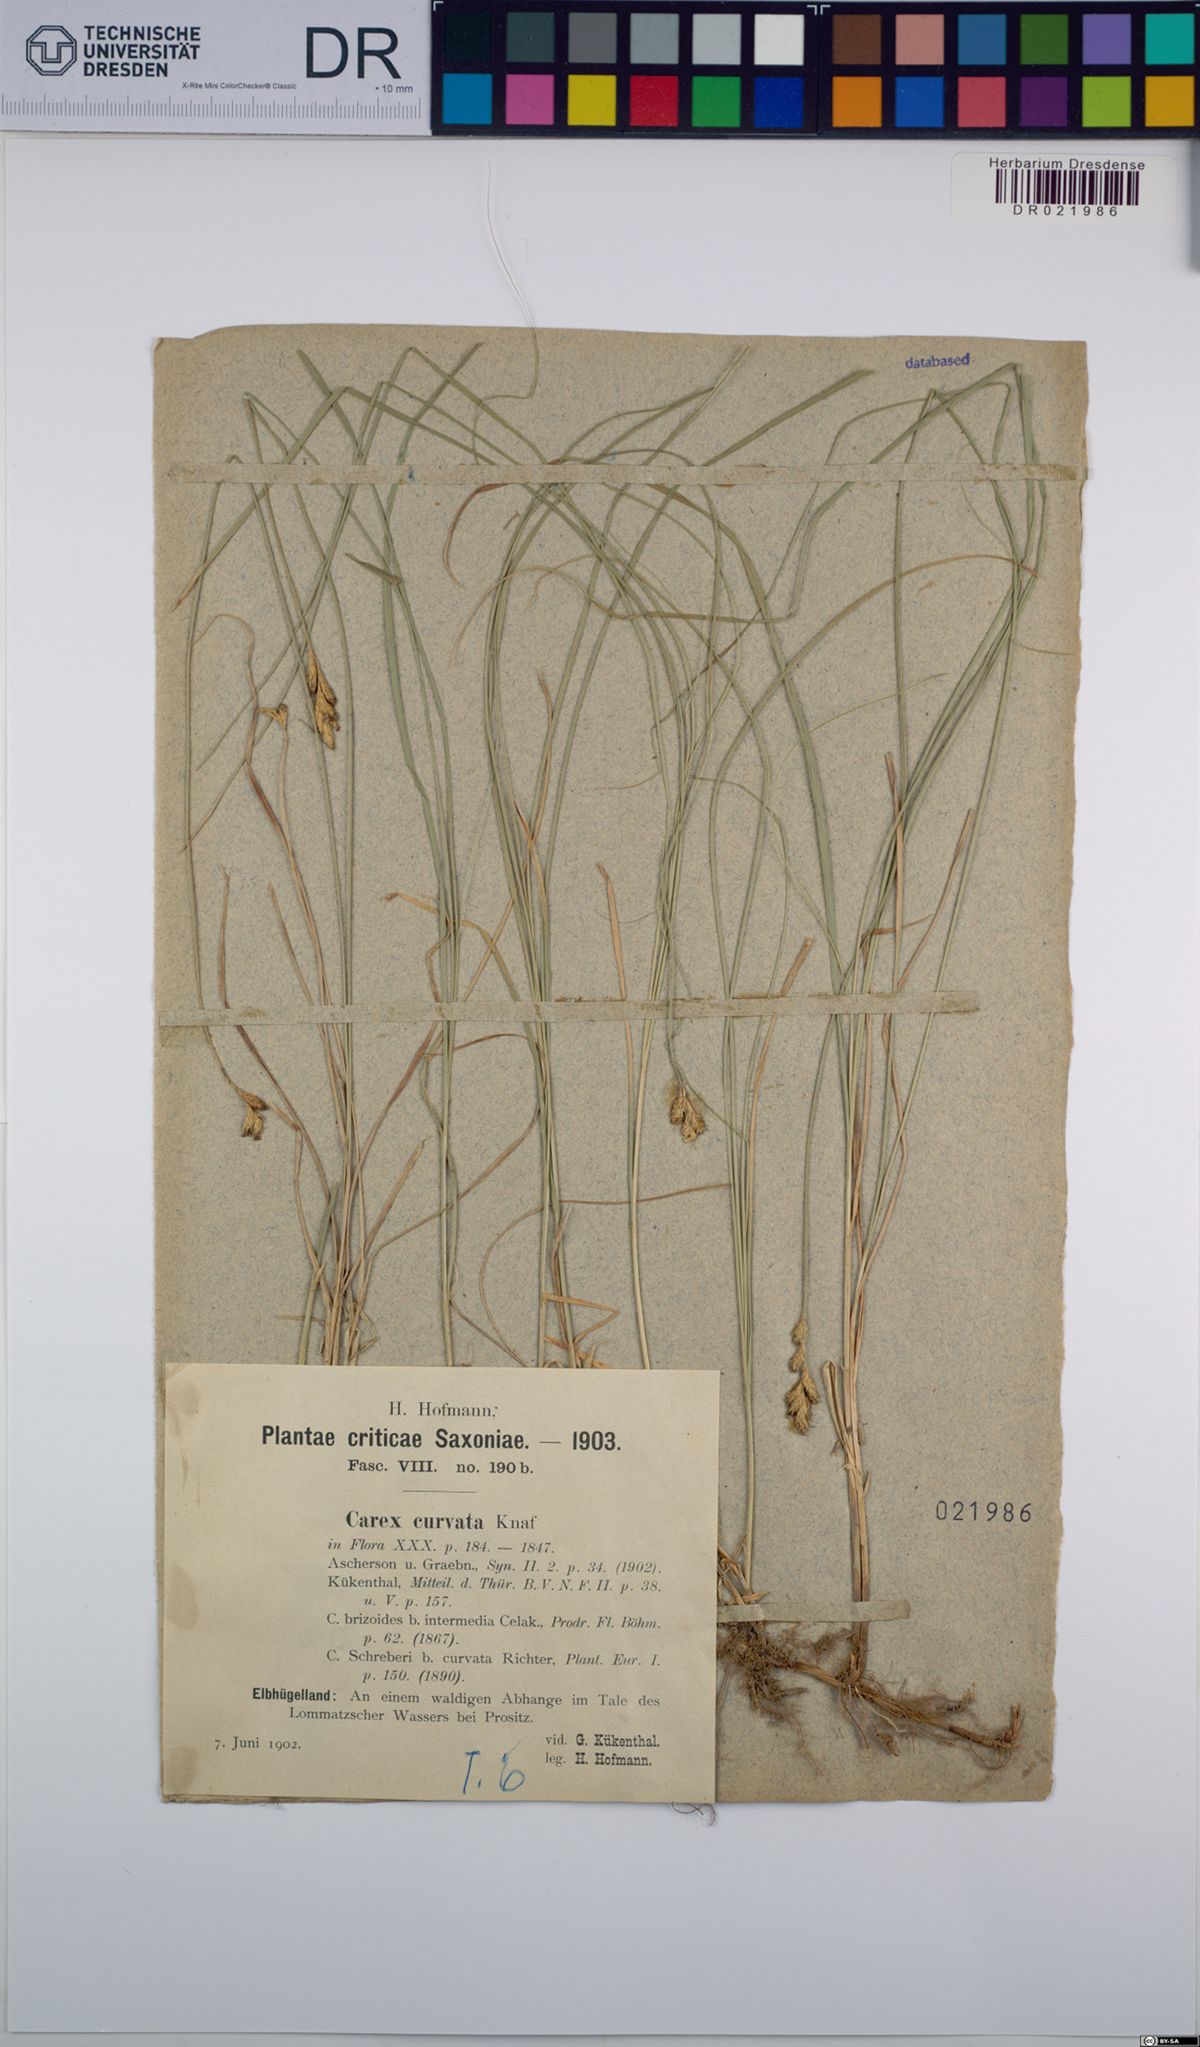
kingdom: Plantae
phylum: Tracheophyta
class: Liliopsida
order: Poales
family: Cyperaceae
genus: Carex
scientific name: Carex curvata
